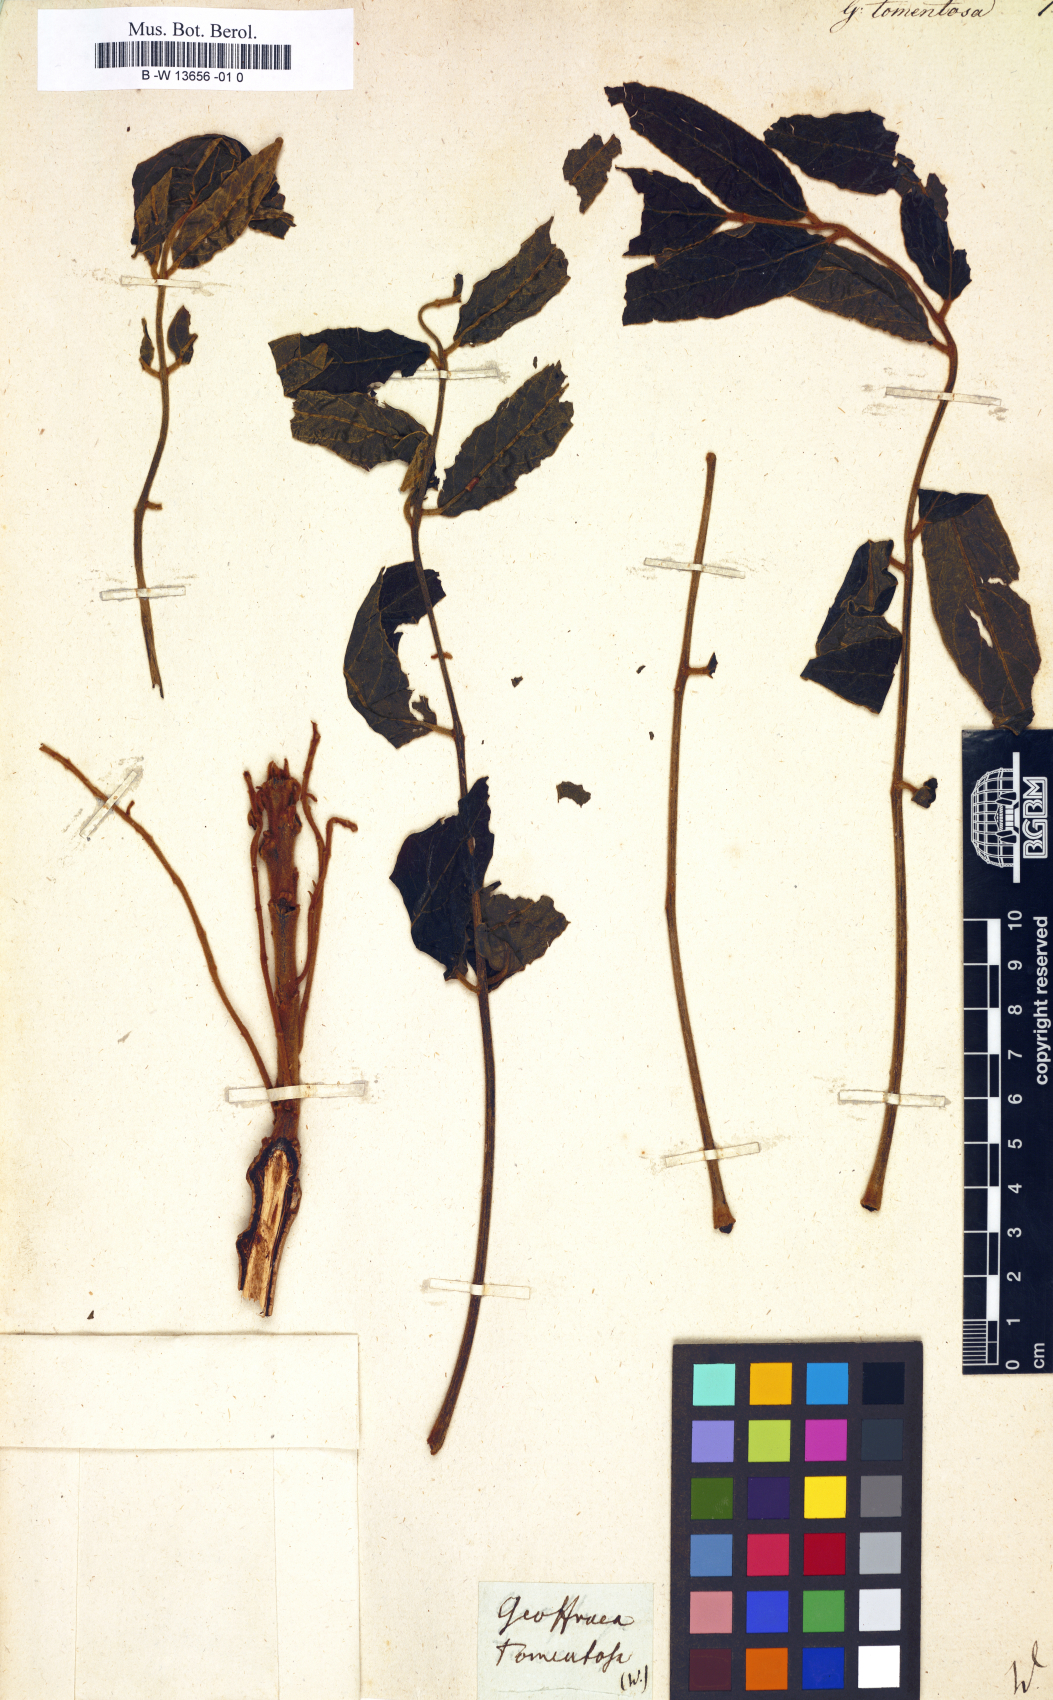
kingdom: Plantae
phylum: Tracheophyta
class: Magnoliopsida
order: Fabales
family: Fabaceae
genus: Geoffroea
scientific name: Geoffroea
